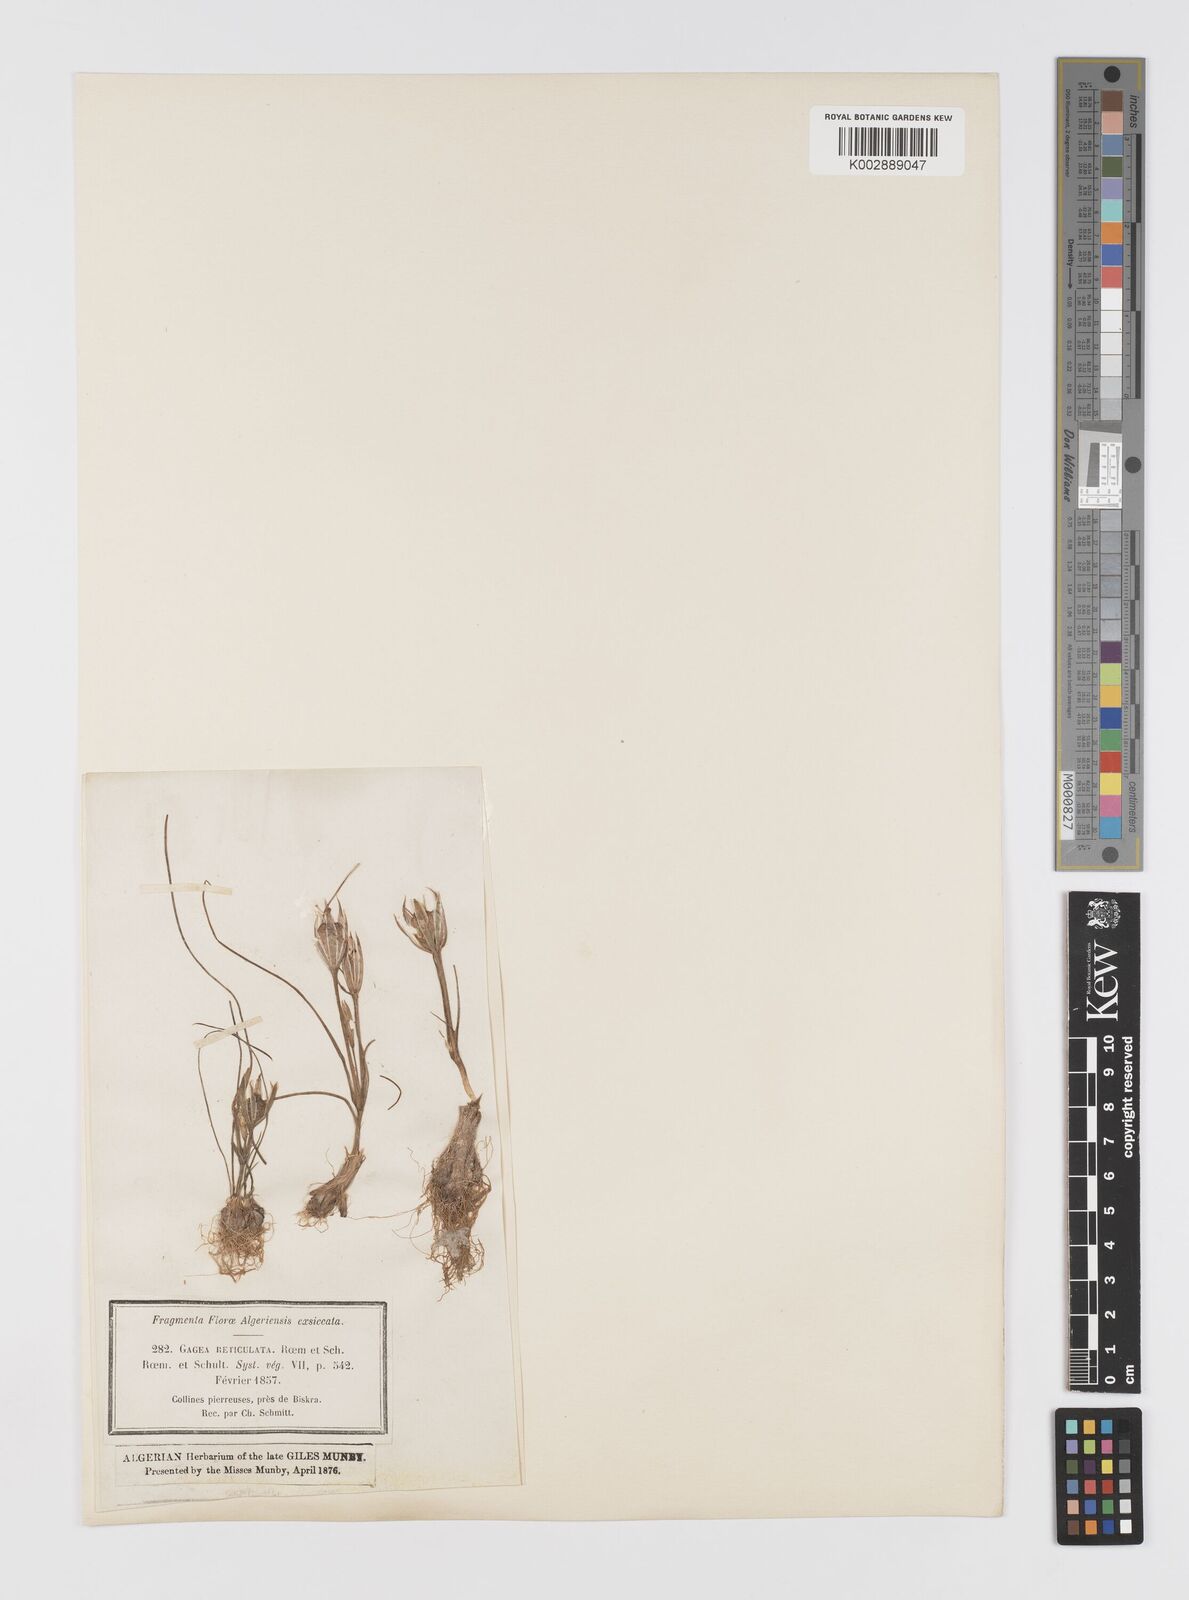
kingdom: Plantae
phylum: Tracheophyta
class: Liliopsida
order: Liliales
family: Liliaceae
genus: Gagea
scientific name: Gagea reticulata
